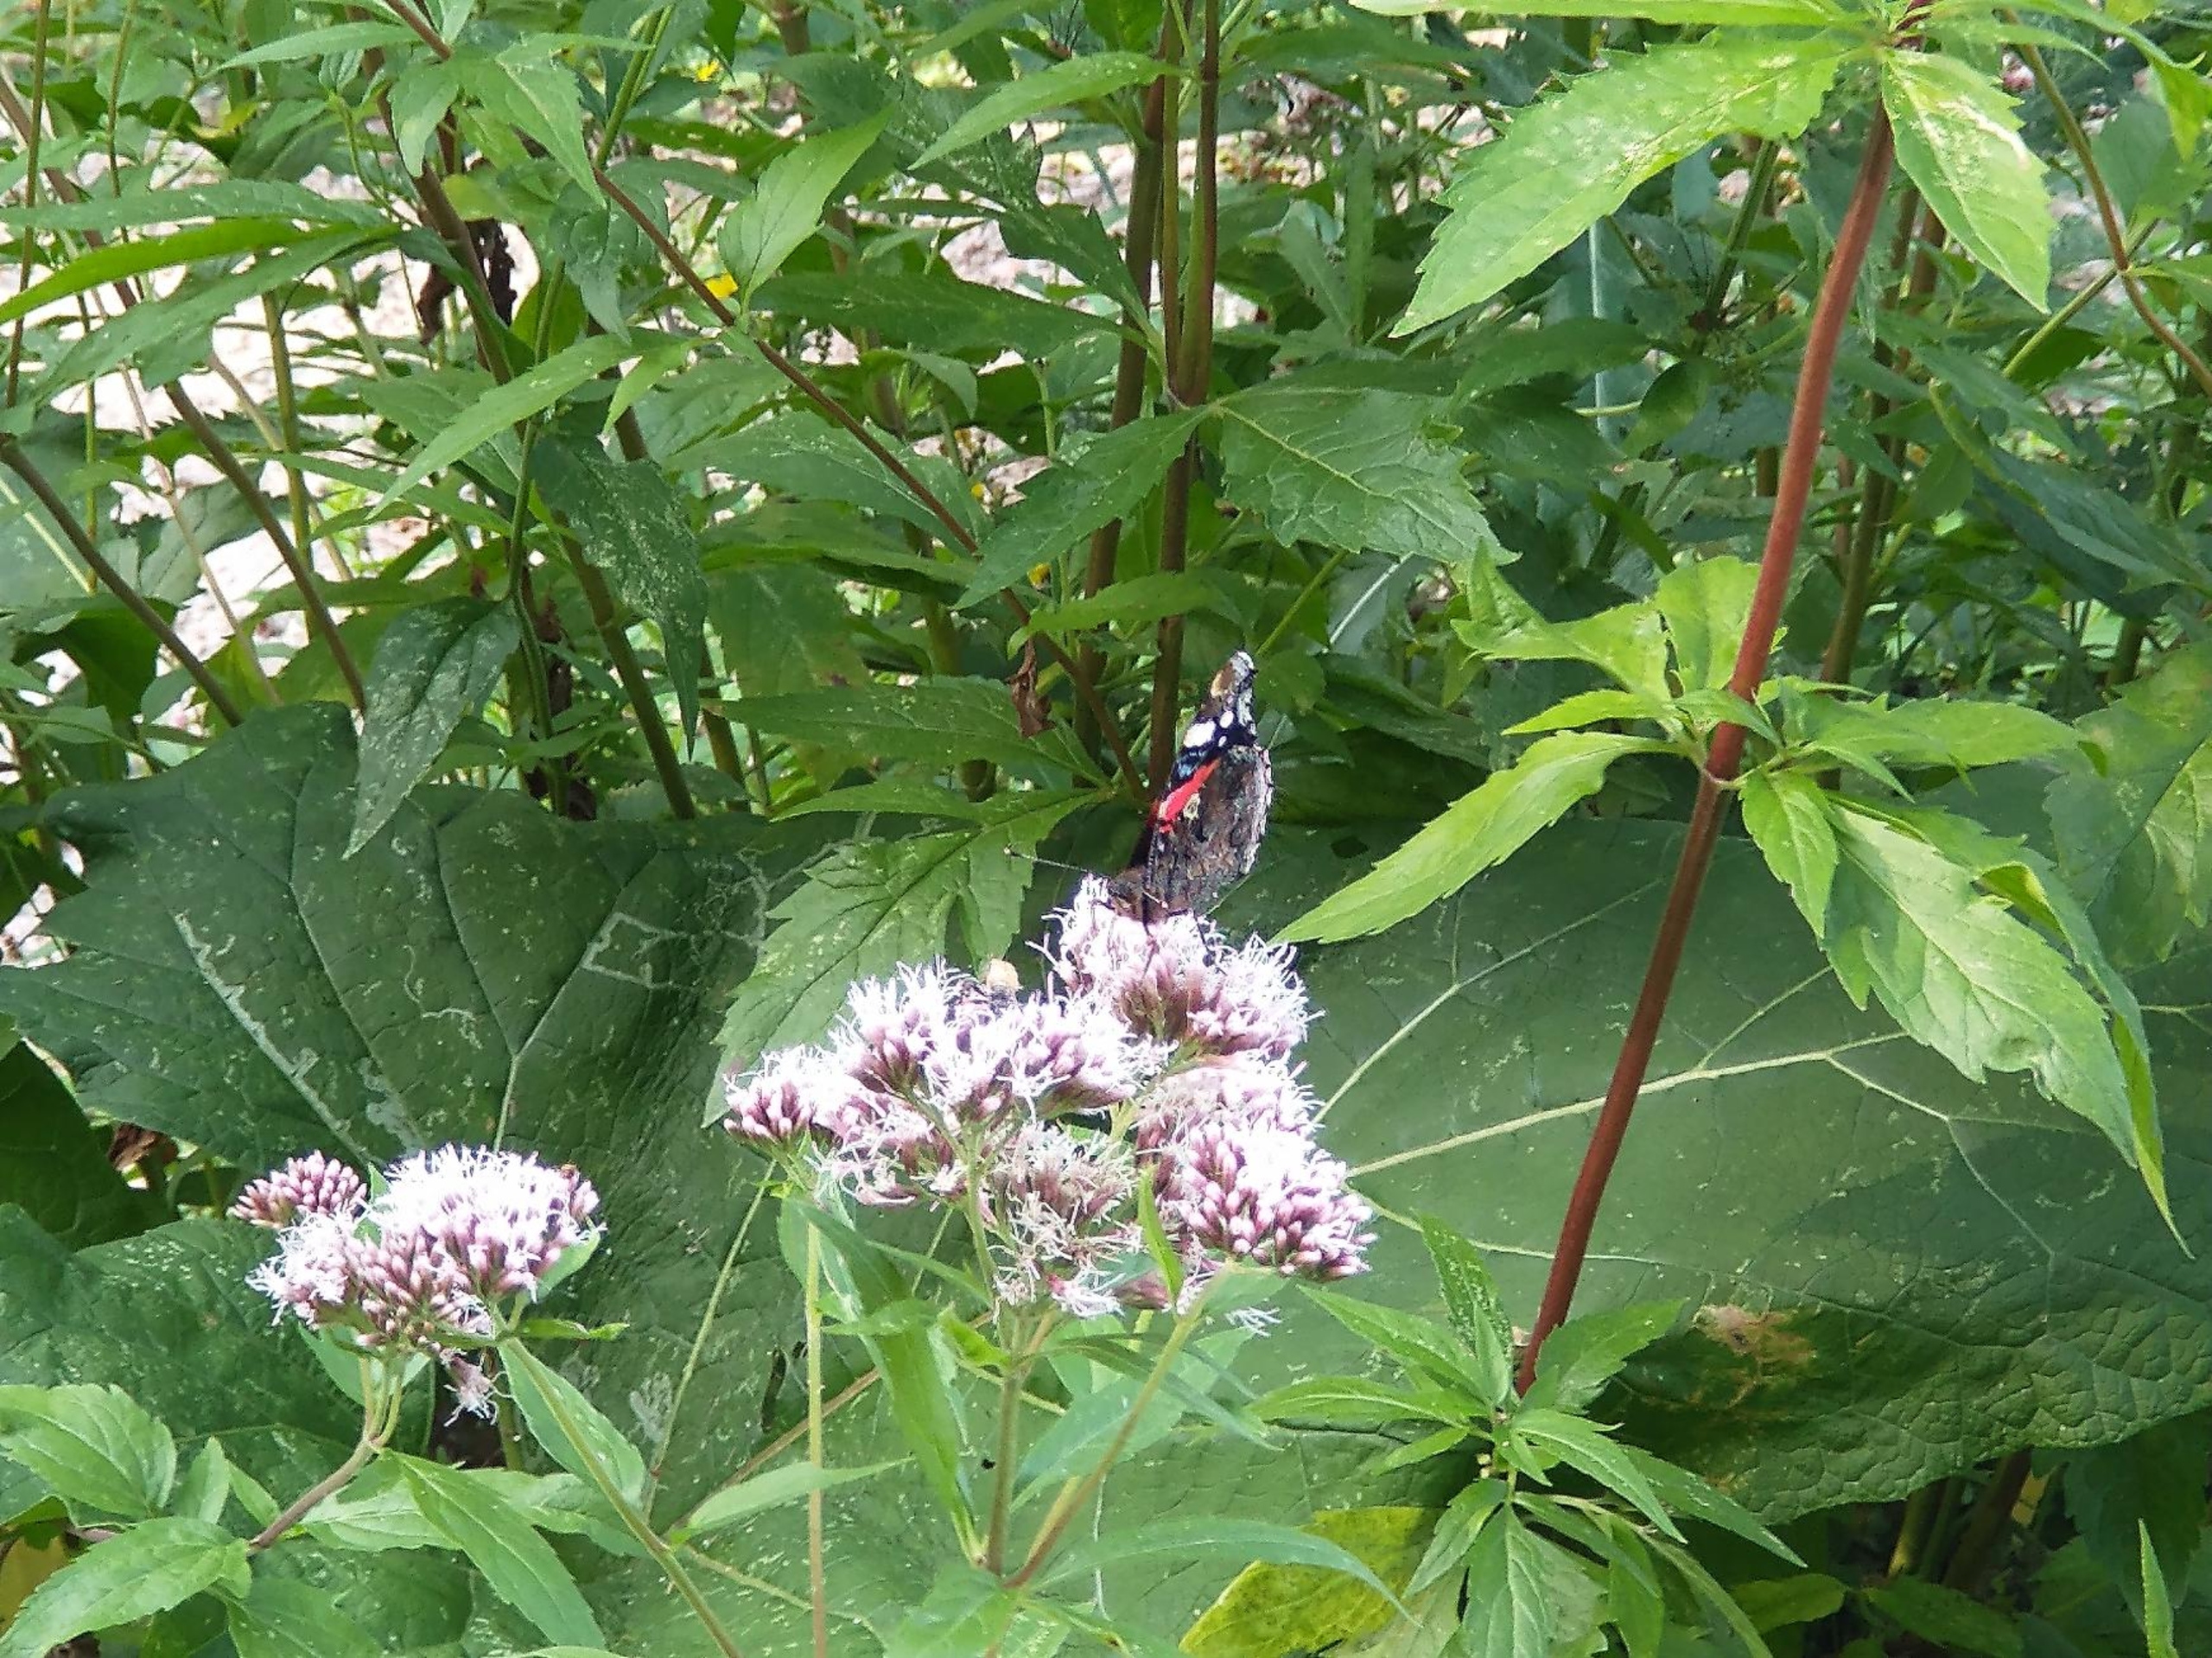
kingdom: Animalia
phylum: Arthropoda
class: Insecta
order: Lepidoptera
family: Nymphalidae
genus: Vanessa
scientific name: Vanessa atalanta
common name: Admiral
